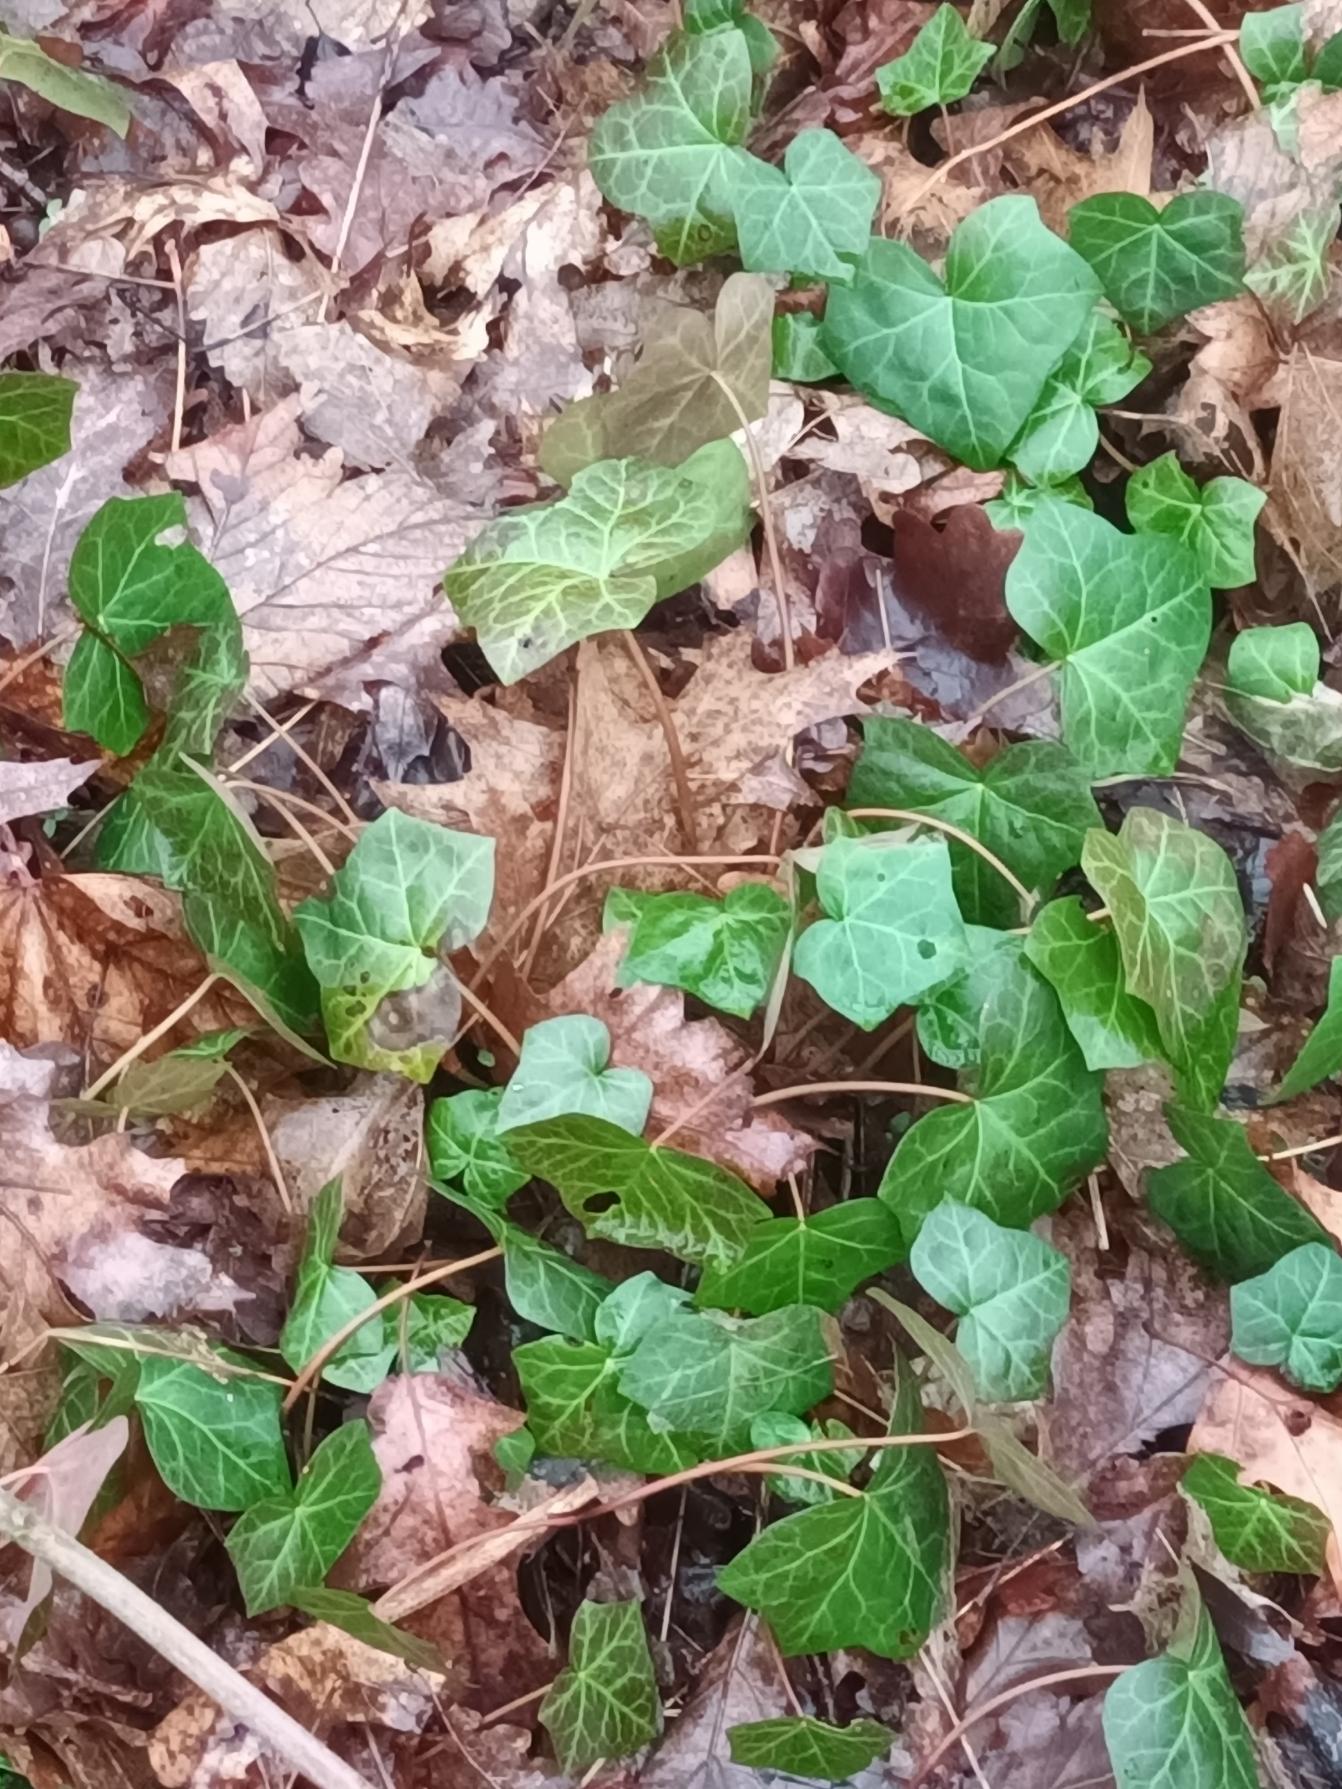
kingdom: Plantae
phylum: Tracheophyta
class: Magnoliopsida
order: Apiales
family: Araliaceae
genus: Hedera
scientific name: Hedera hibernica
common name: Irsk vedbend
